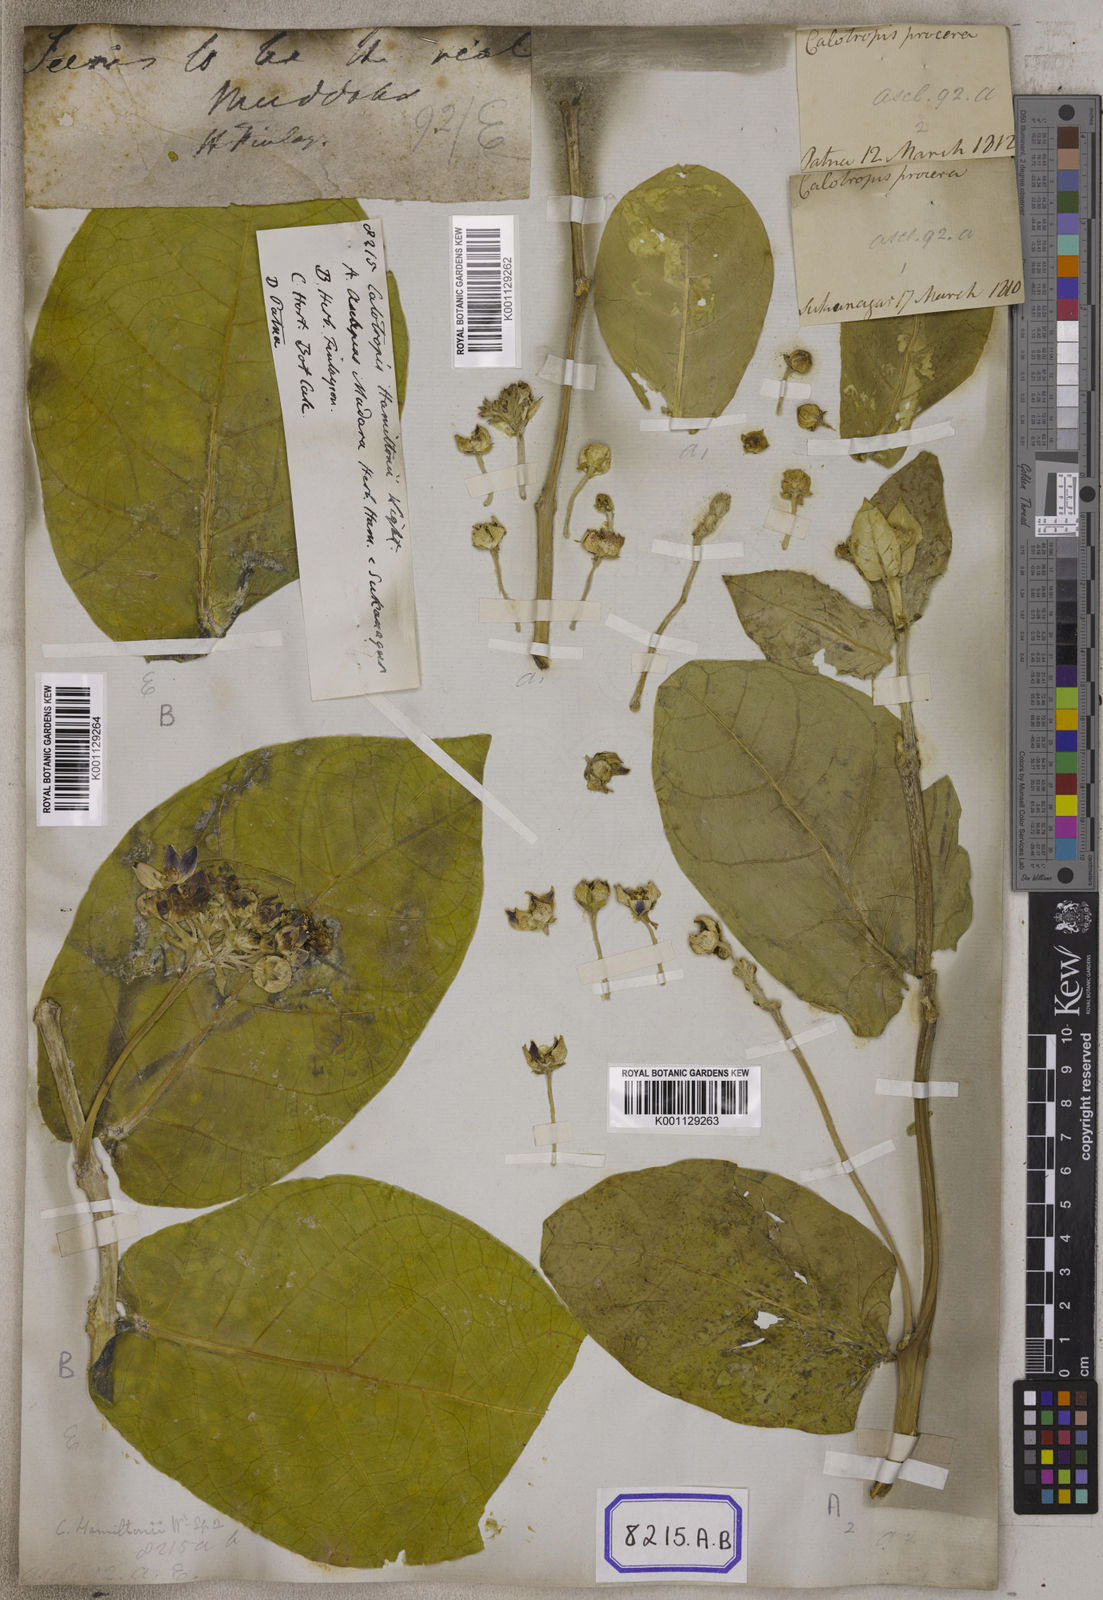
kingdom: Plantae
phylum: Tracheophyta
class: Magnoliopsida
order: Gentianales
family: Apocynaceae
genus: Calotropis
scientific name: Calotropis procera
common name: Roostertree
